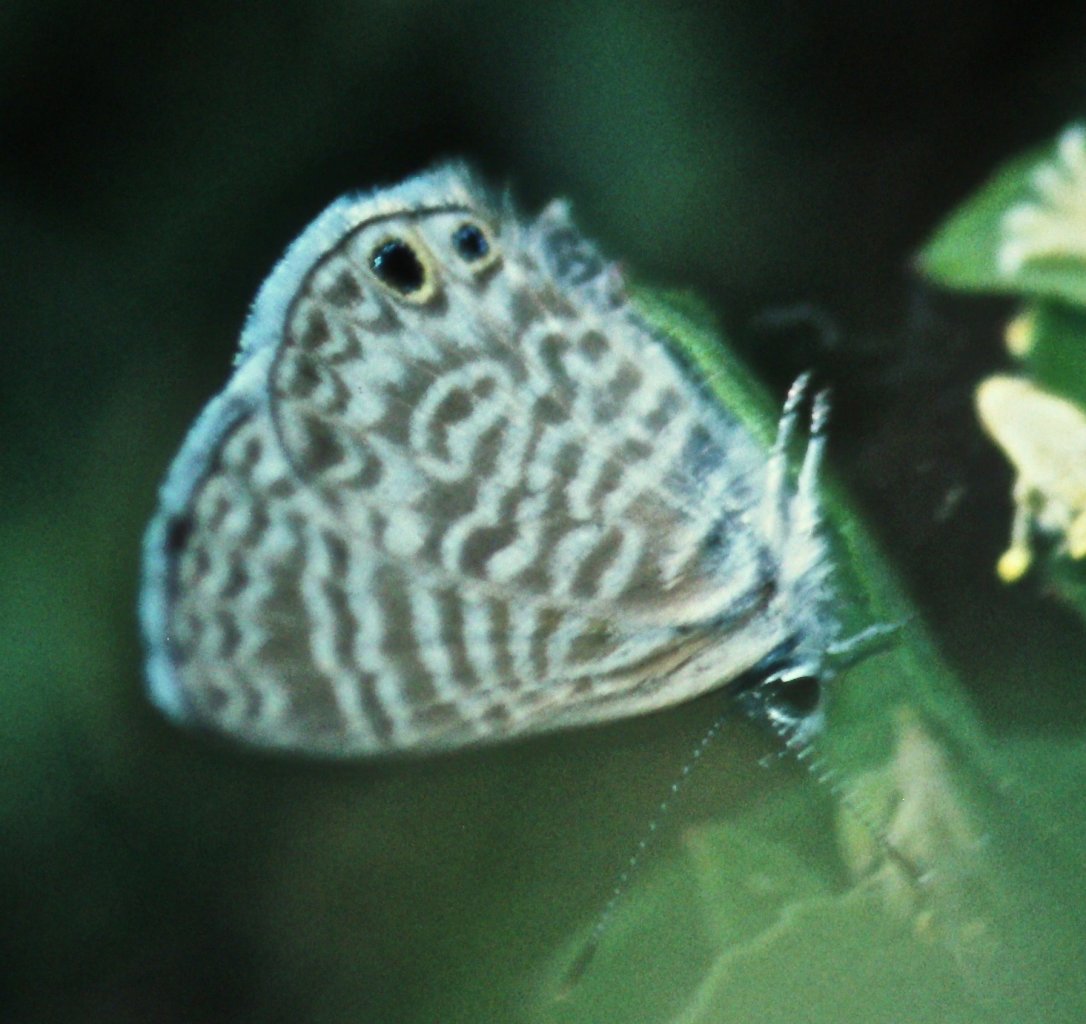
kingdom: Animalia
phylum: Arthropoda
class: Insecta
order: Lepidoptera
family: Lycaenidae
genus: Leptotes
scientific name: Leptotes marina
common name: Marine Blue
